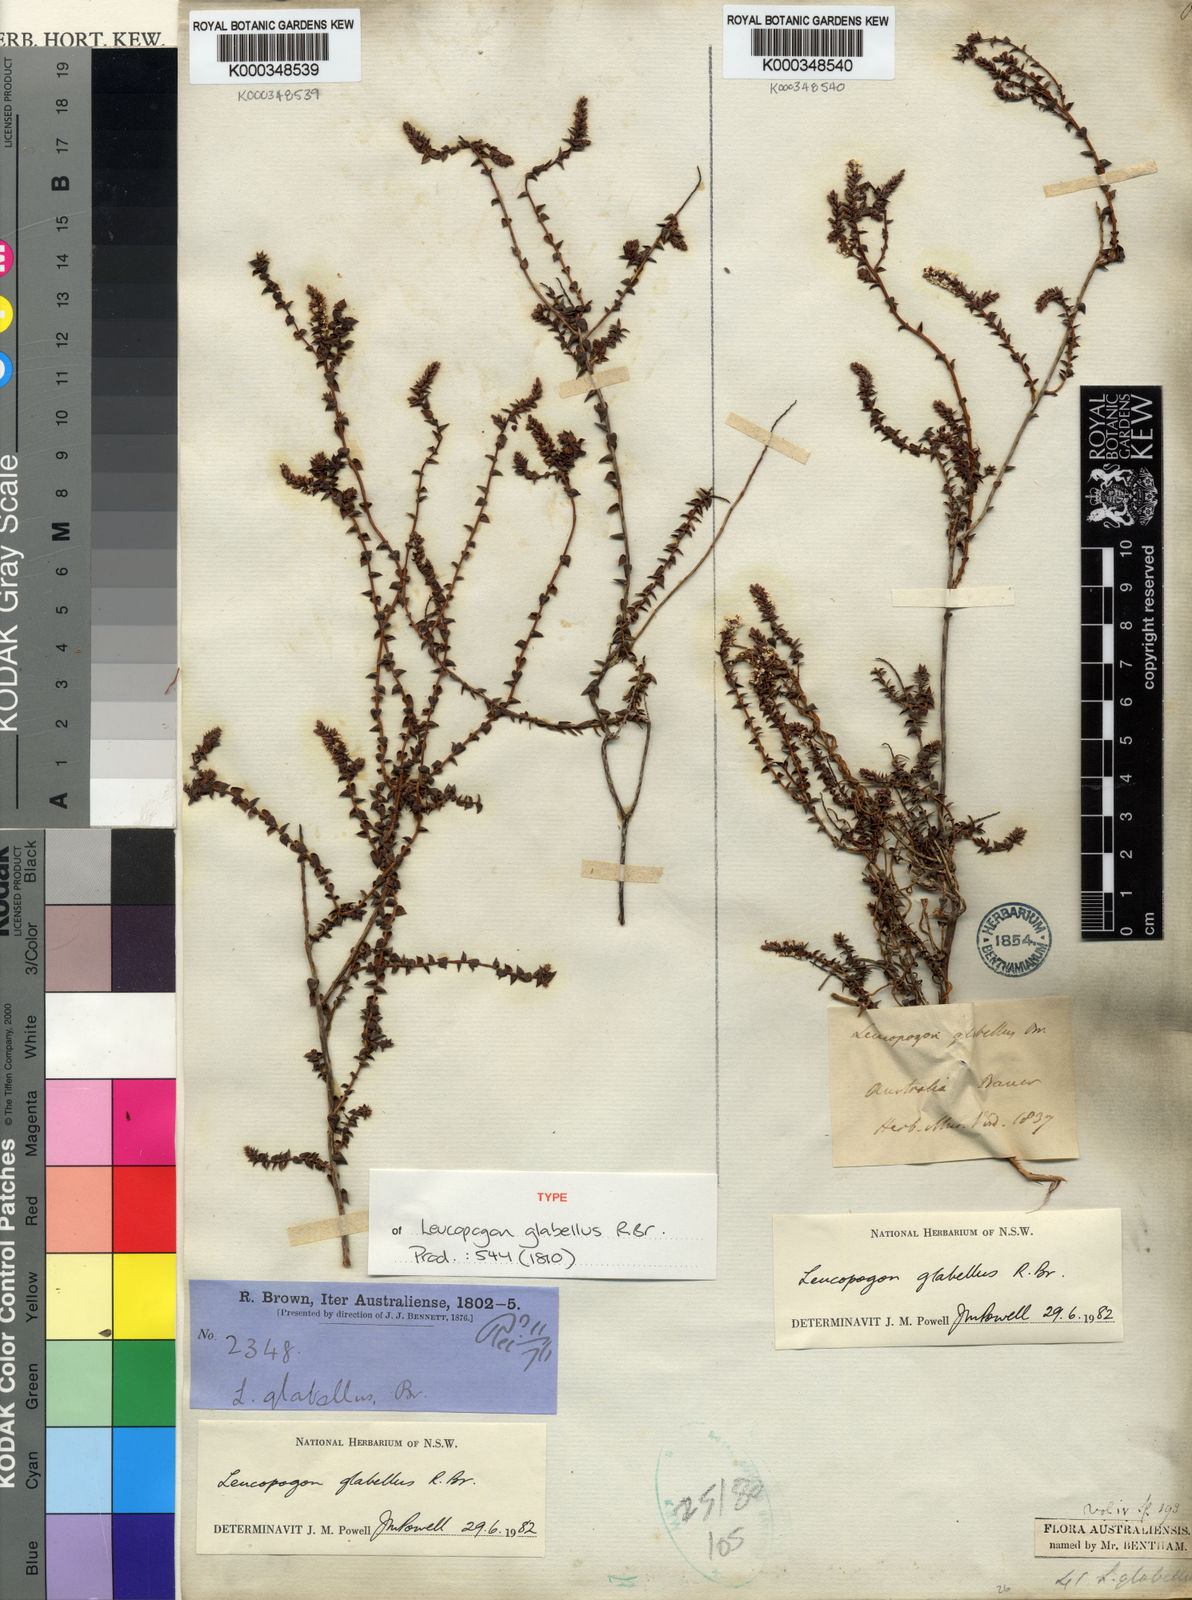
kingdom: Plantae
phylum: Tracheophyta
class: Magnoliopsida
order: Ericales
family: Ericaceae
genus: Leucopogon
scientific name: Leucopogon glabellus
